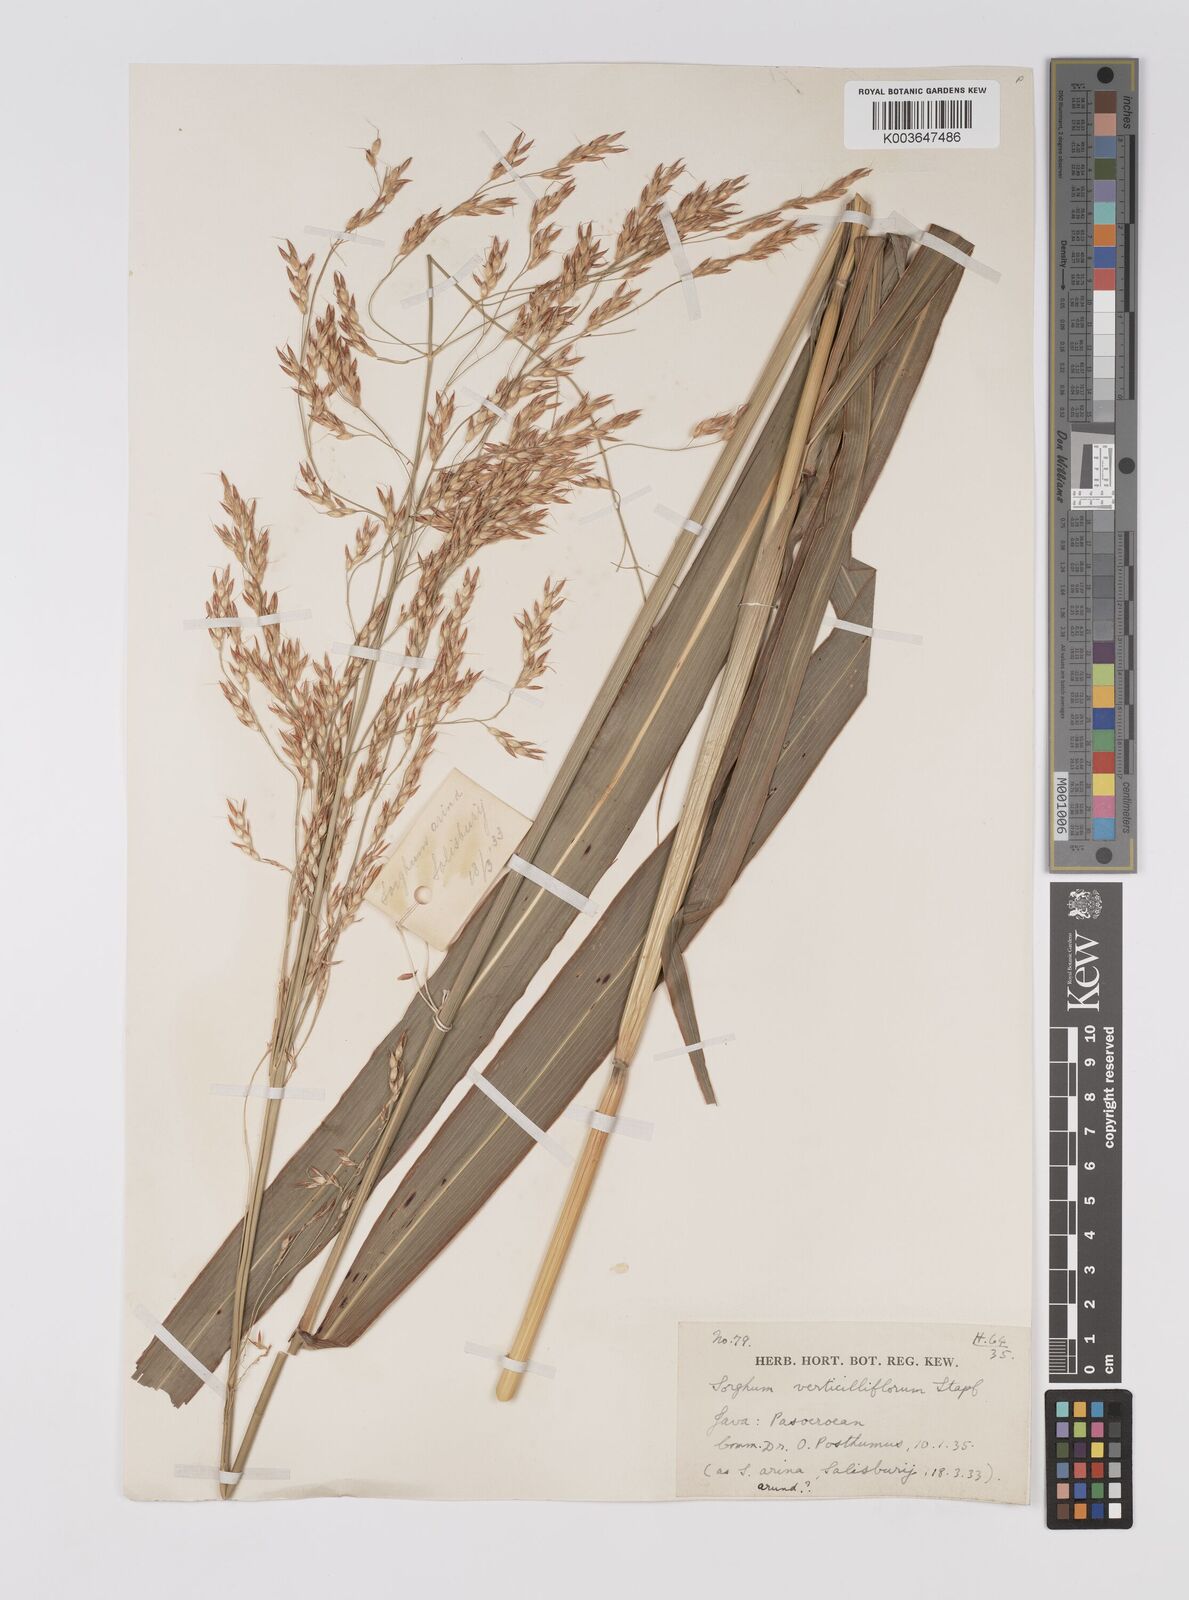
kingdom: Plantae
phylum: Tracheophyta
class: Liliopsida
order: Poales
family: Poaceae
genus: Sorghum
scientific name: Sorghum arundinaceum
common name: Sorghum
